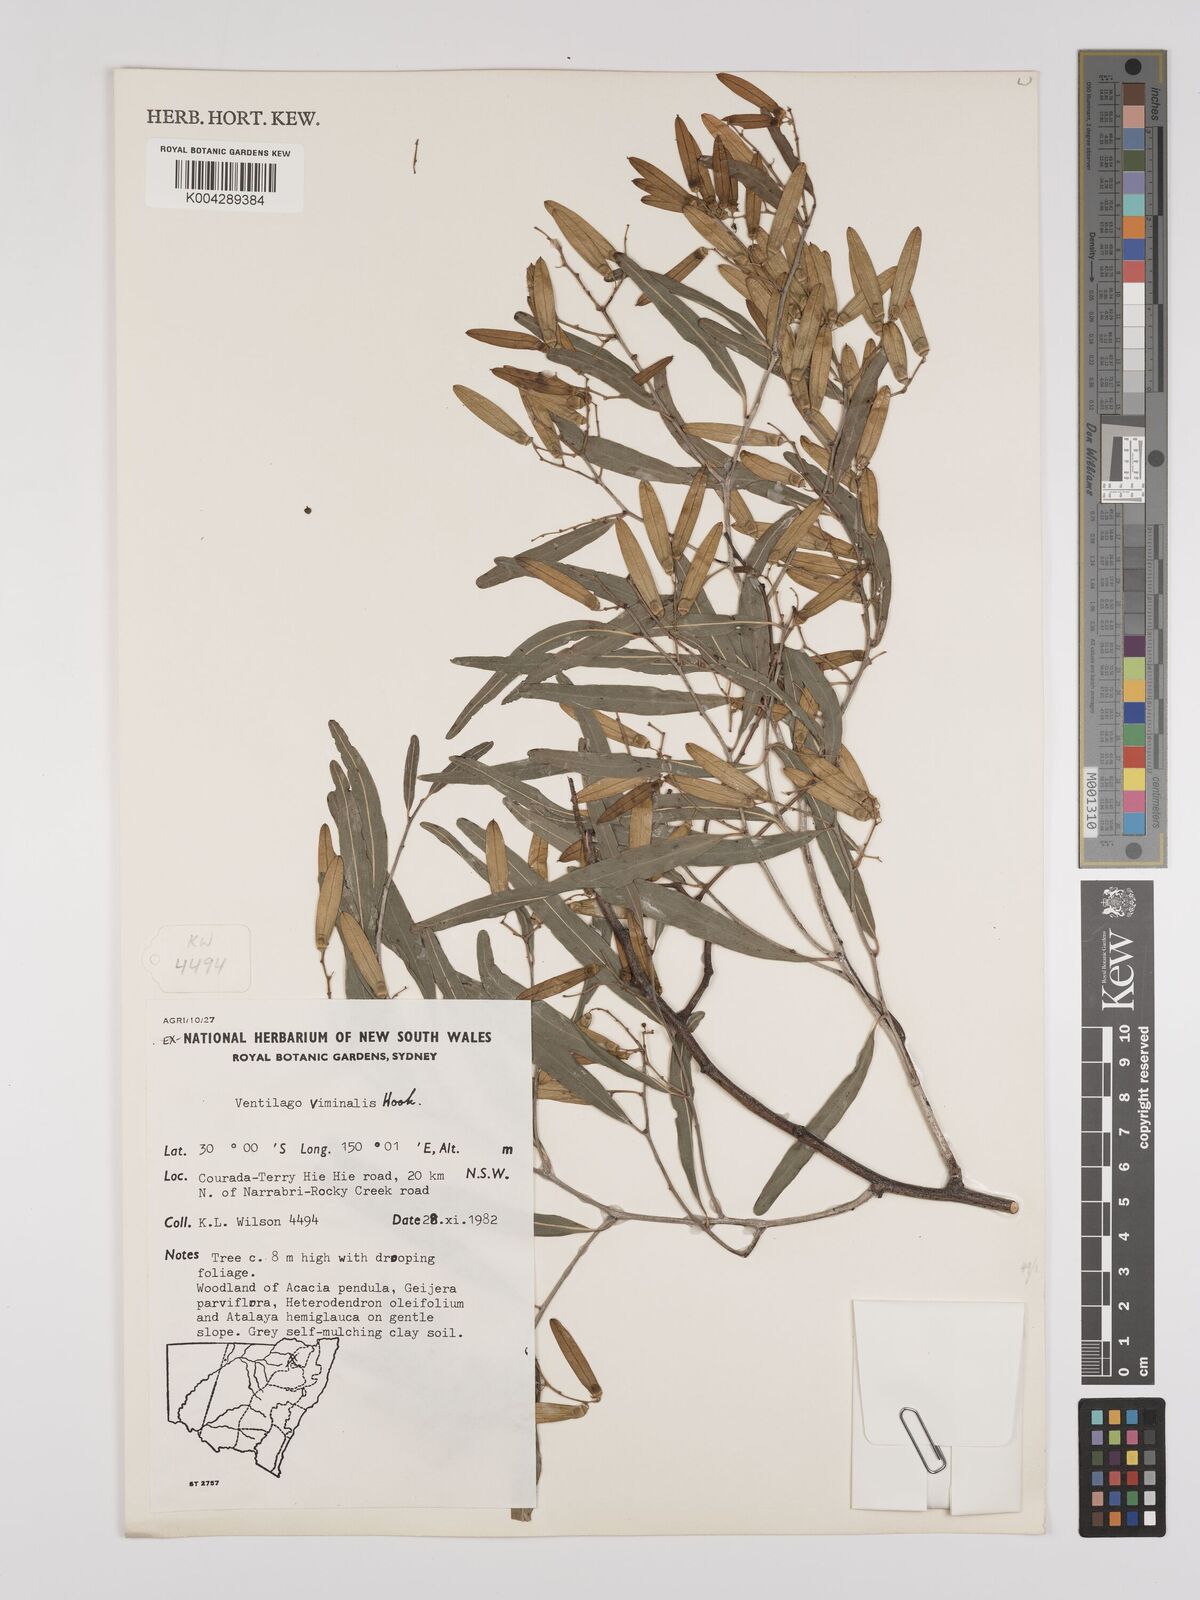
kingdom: Plantae
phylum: Tracheophyta
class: Magnoliopsida
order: Rosales
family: Rhamnaceae
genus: Ventilago
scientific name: Ventilago viminalis
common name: Medicine-bark
